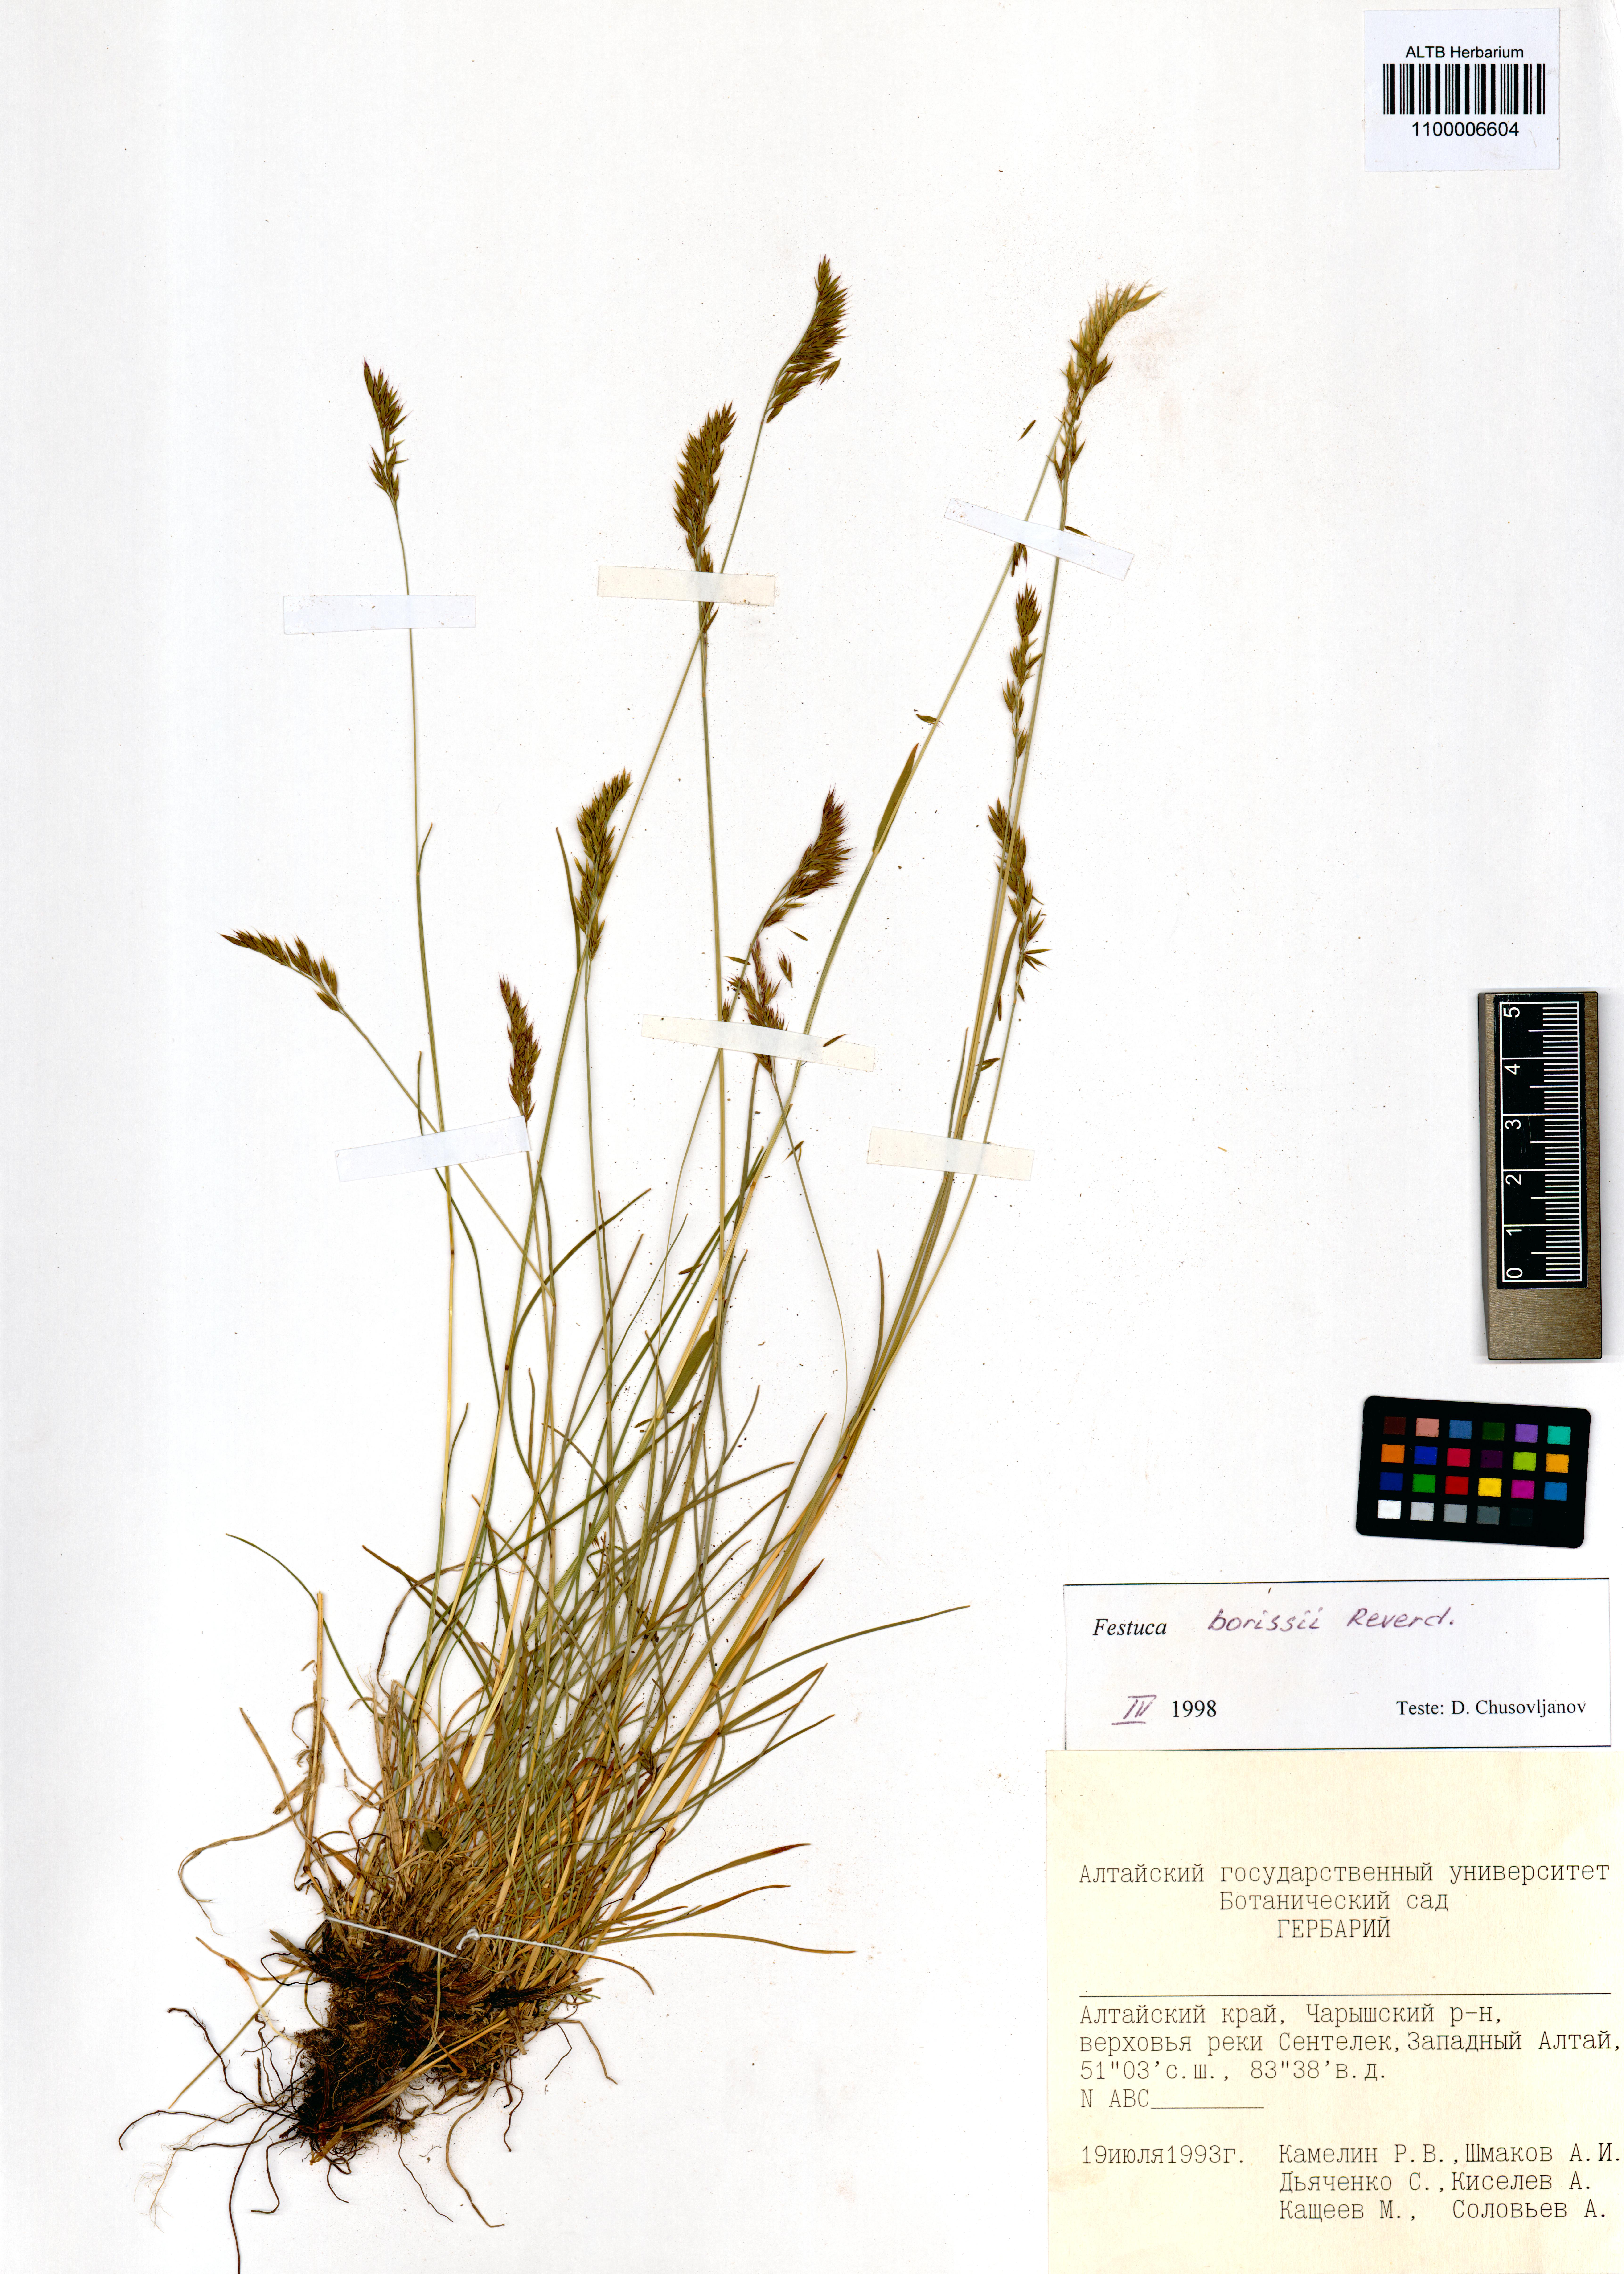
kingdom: Plantae
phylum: Tracheophyta
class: Liliopsida
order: Poales
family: Poaceae
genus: Festuca
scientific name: Festuca borissii
